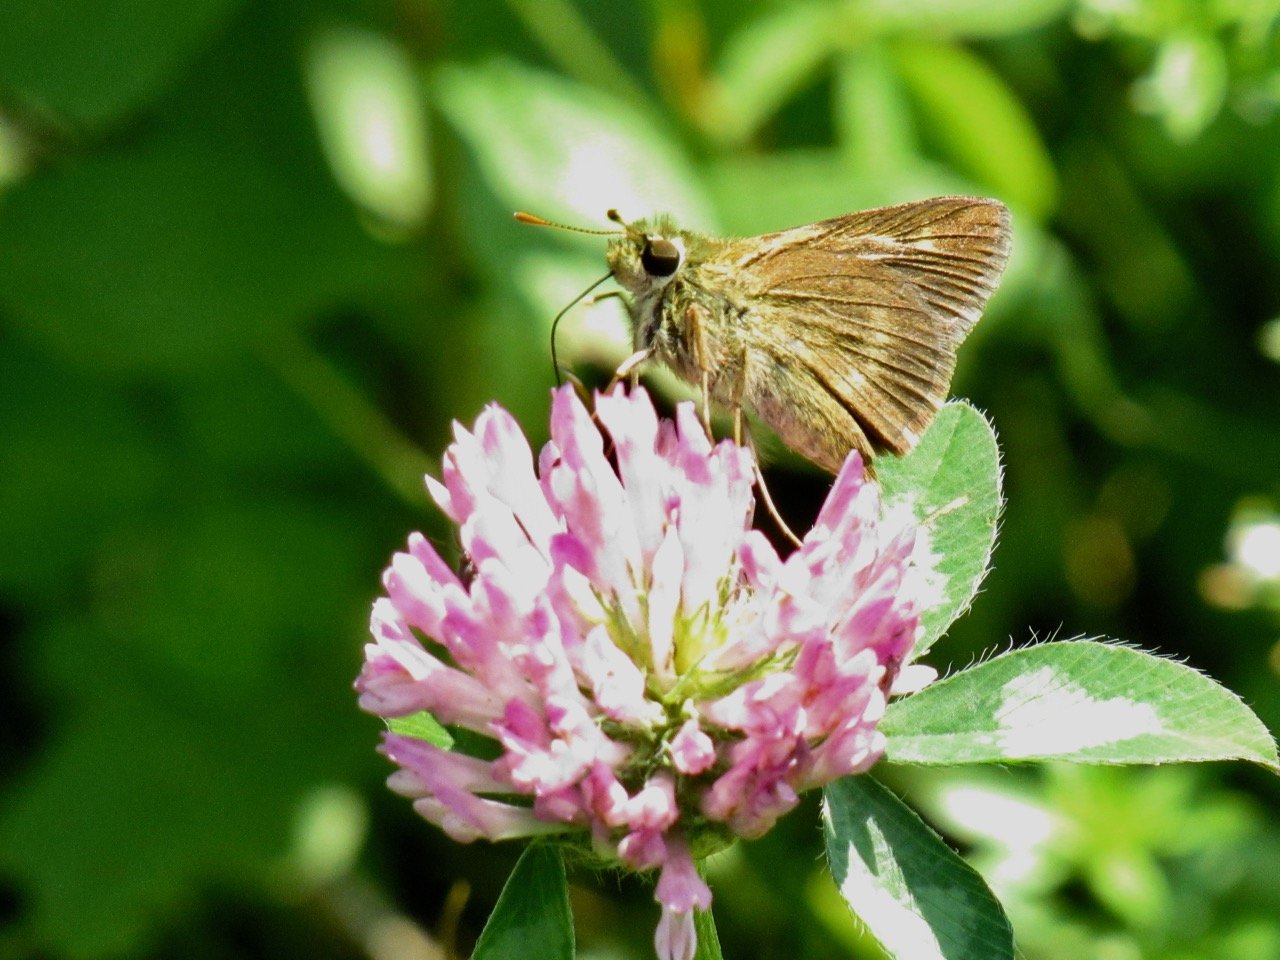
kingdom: Animalia
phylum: Arthropoda
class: Insecta
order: Lepidoptera
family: Hesperiidae
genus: Polites
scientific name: Polites egeremet
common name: Northern Broken-Dash
